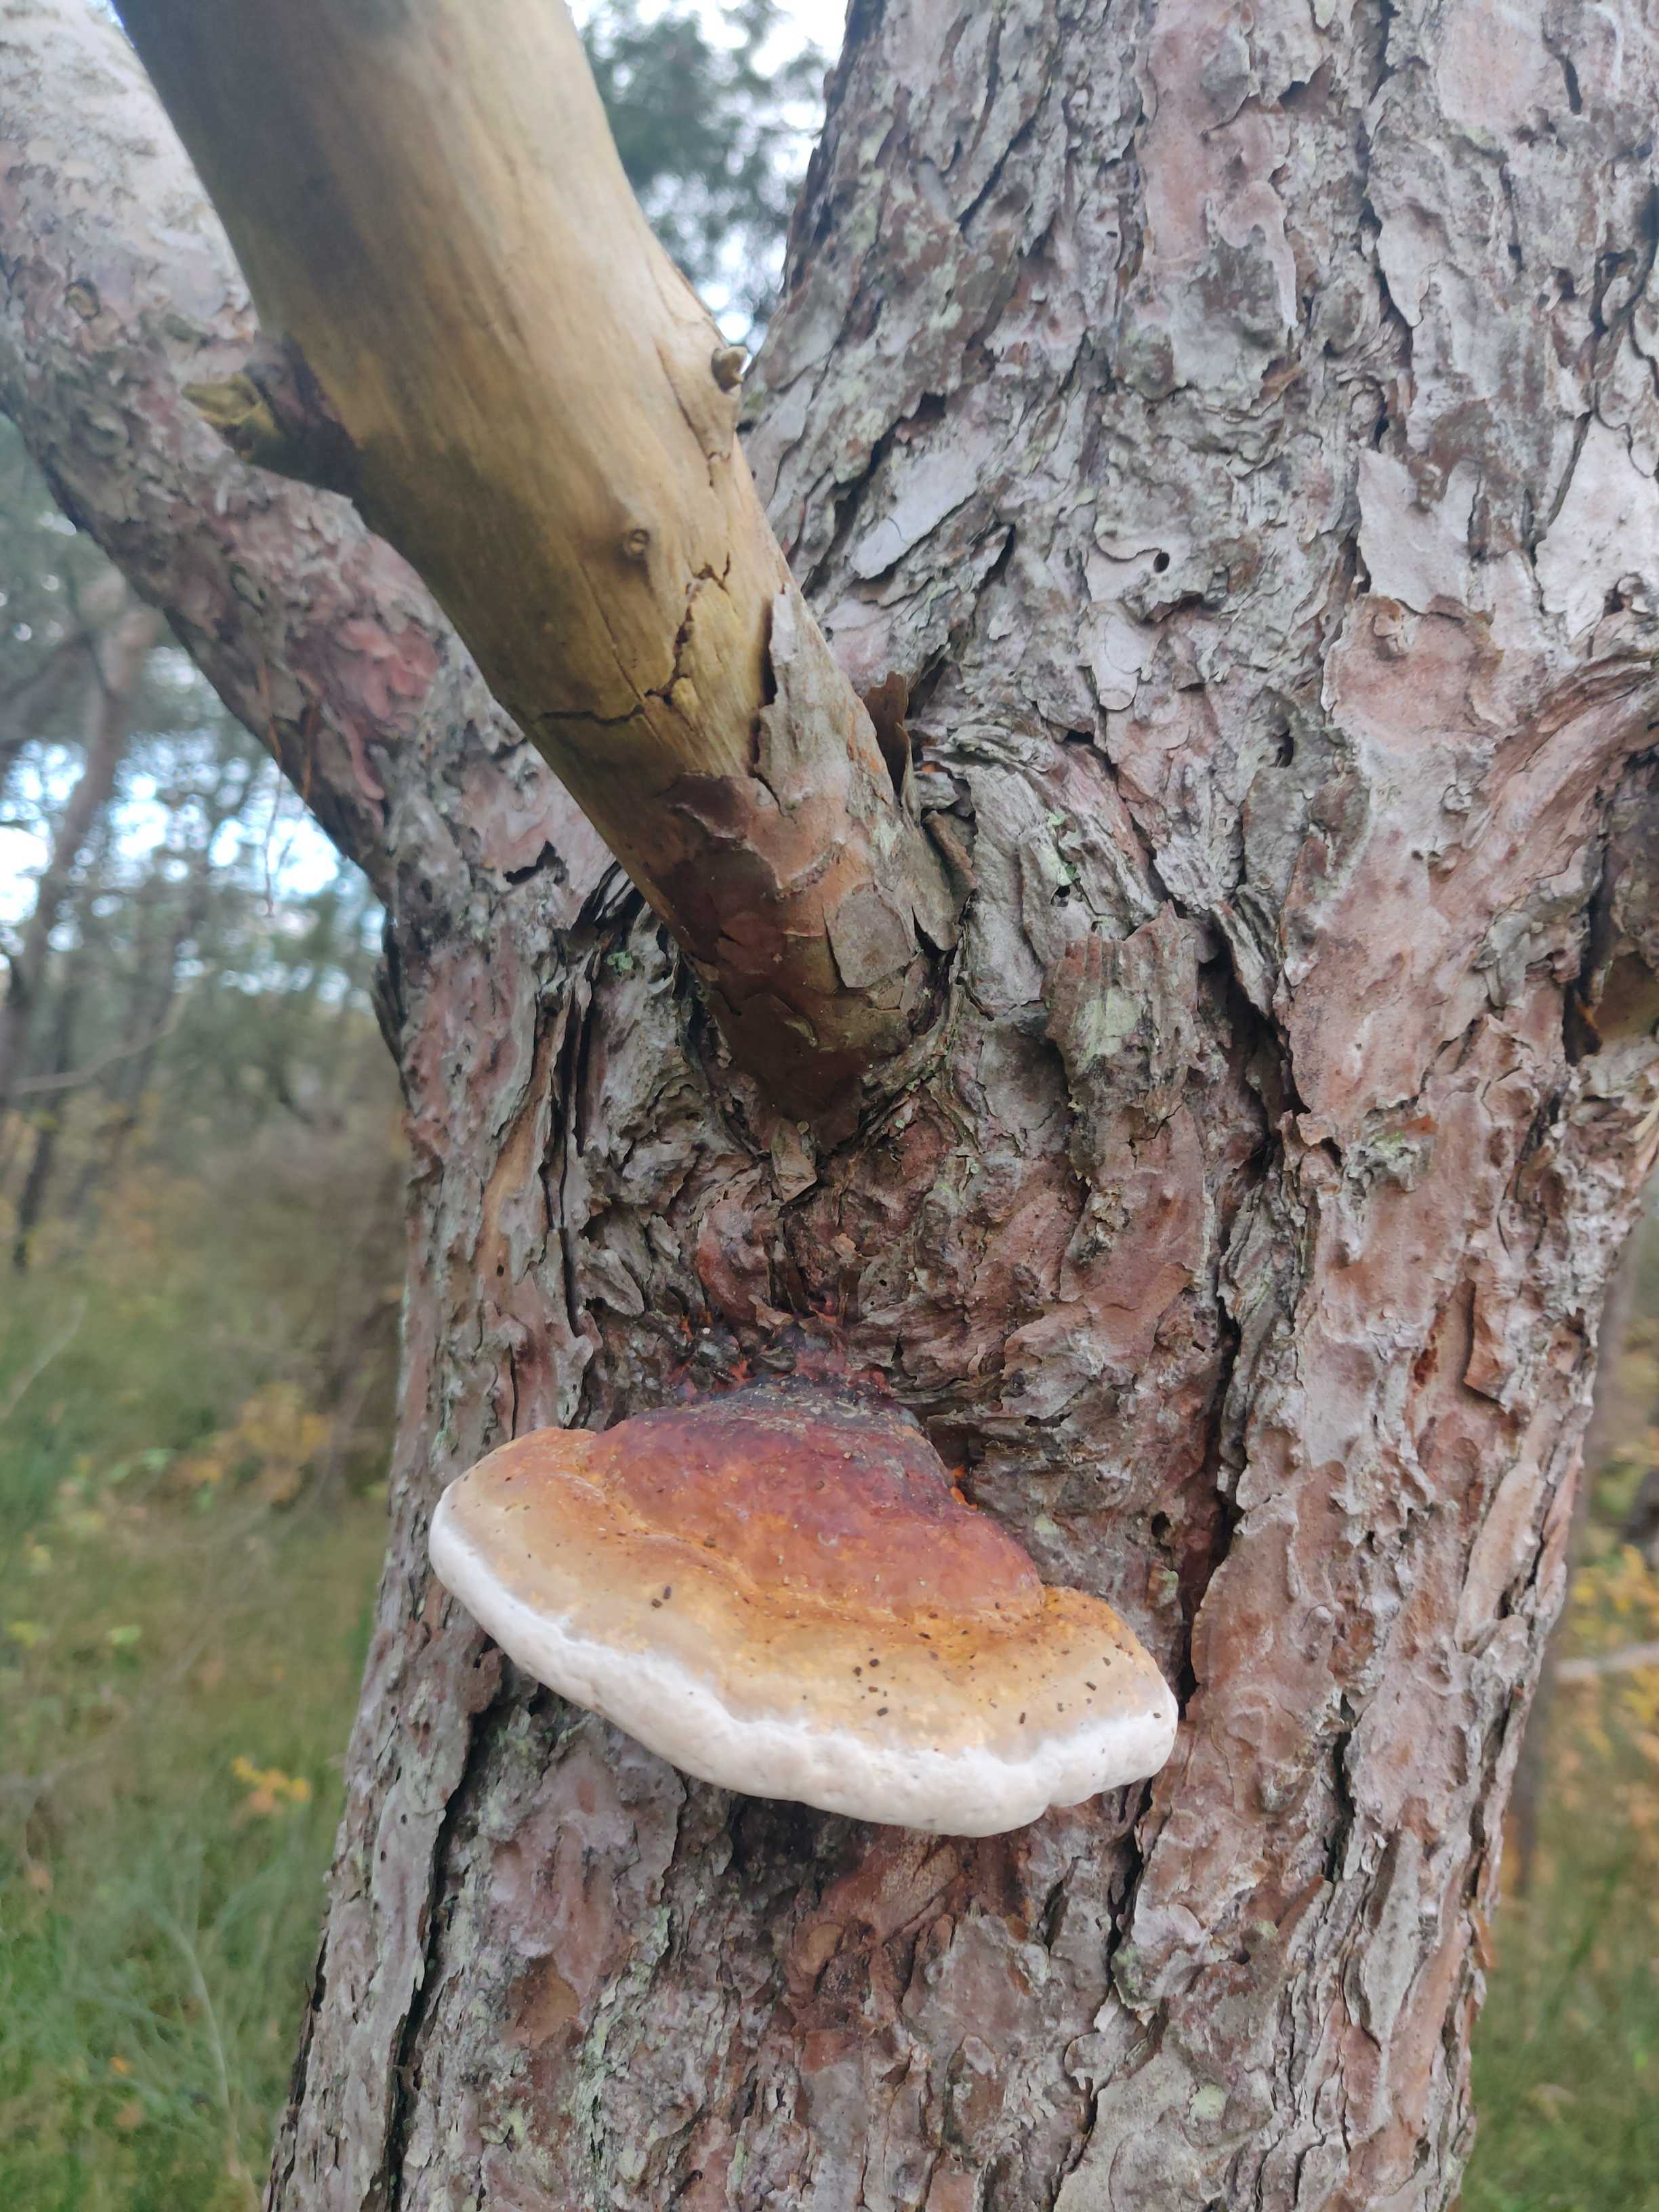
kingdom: Fungi
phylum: Basidiomycota
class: Agaricomycetes
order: Polyporales
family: Fomitopsidaceae
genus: Fomitopsis
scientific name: Fomitopsis pinicola
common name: randbæltet hovporesvamp
